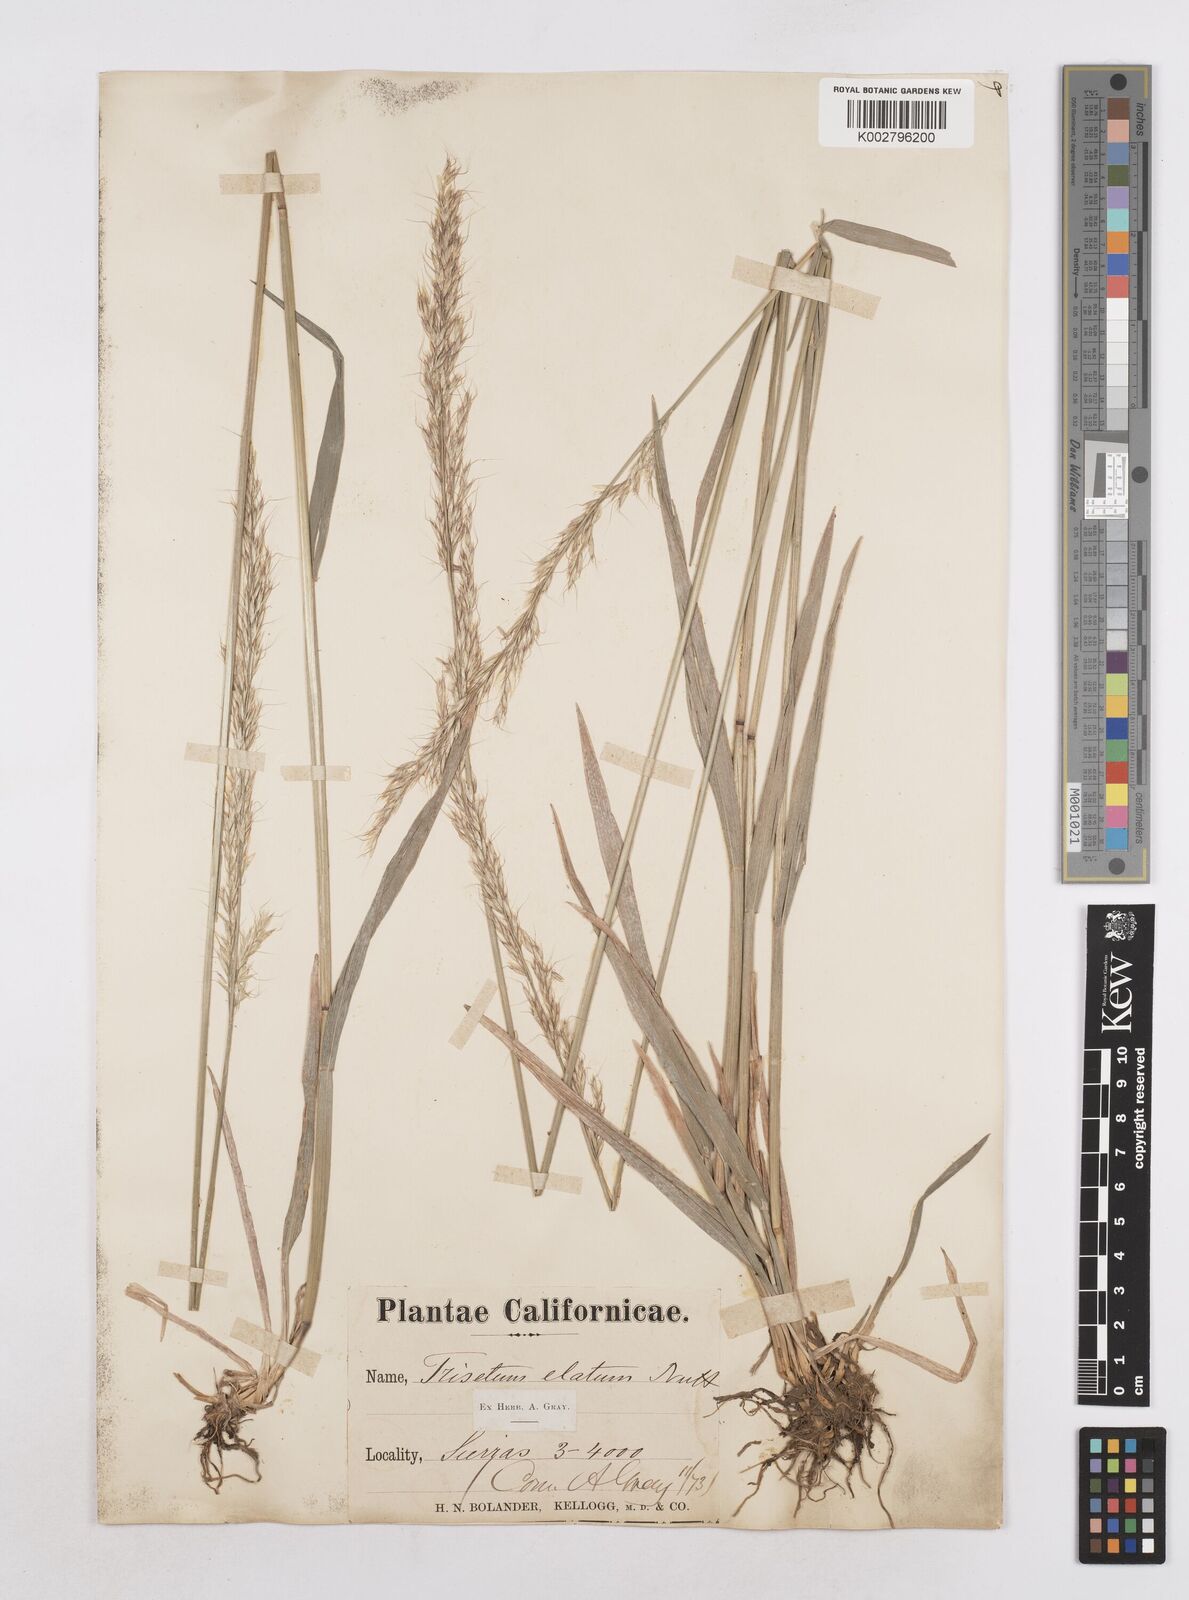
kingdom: Plantae
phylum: Tracheophyta
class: Liliopsida
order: Poales
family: Poaceae
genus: Graphephorum
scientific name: Graphephorum canescens
